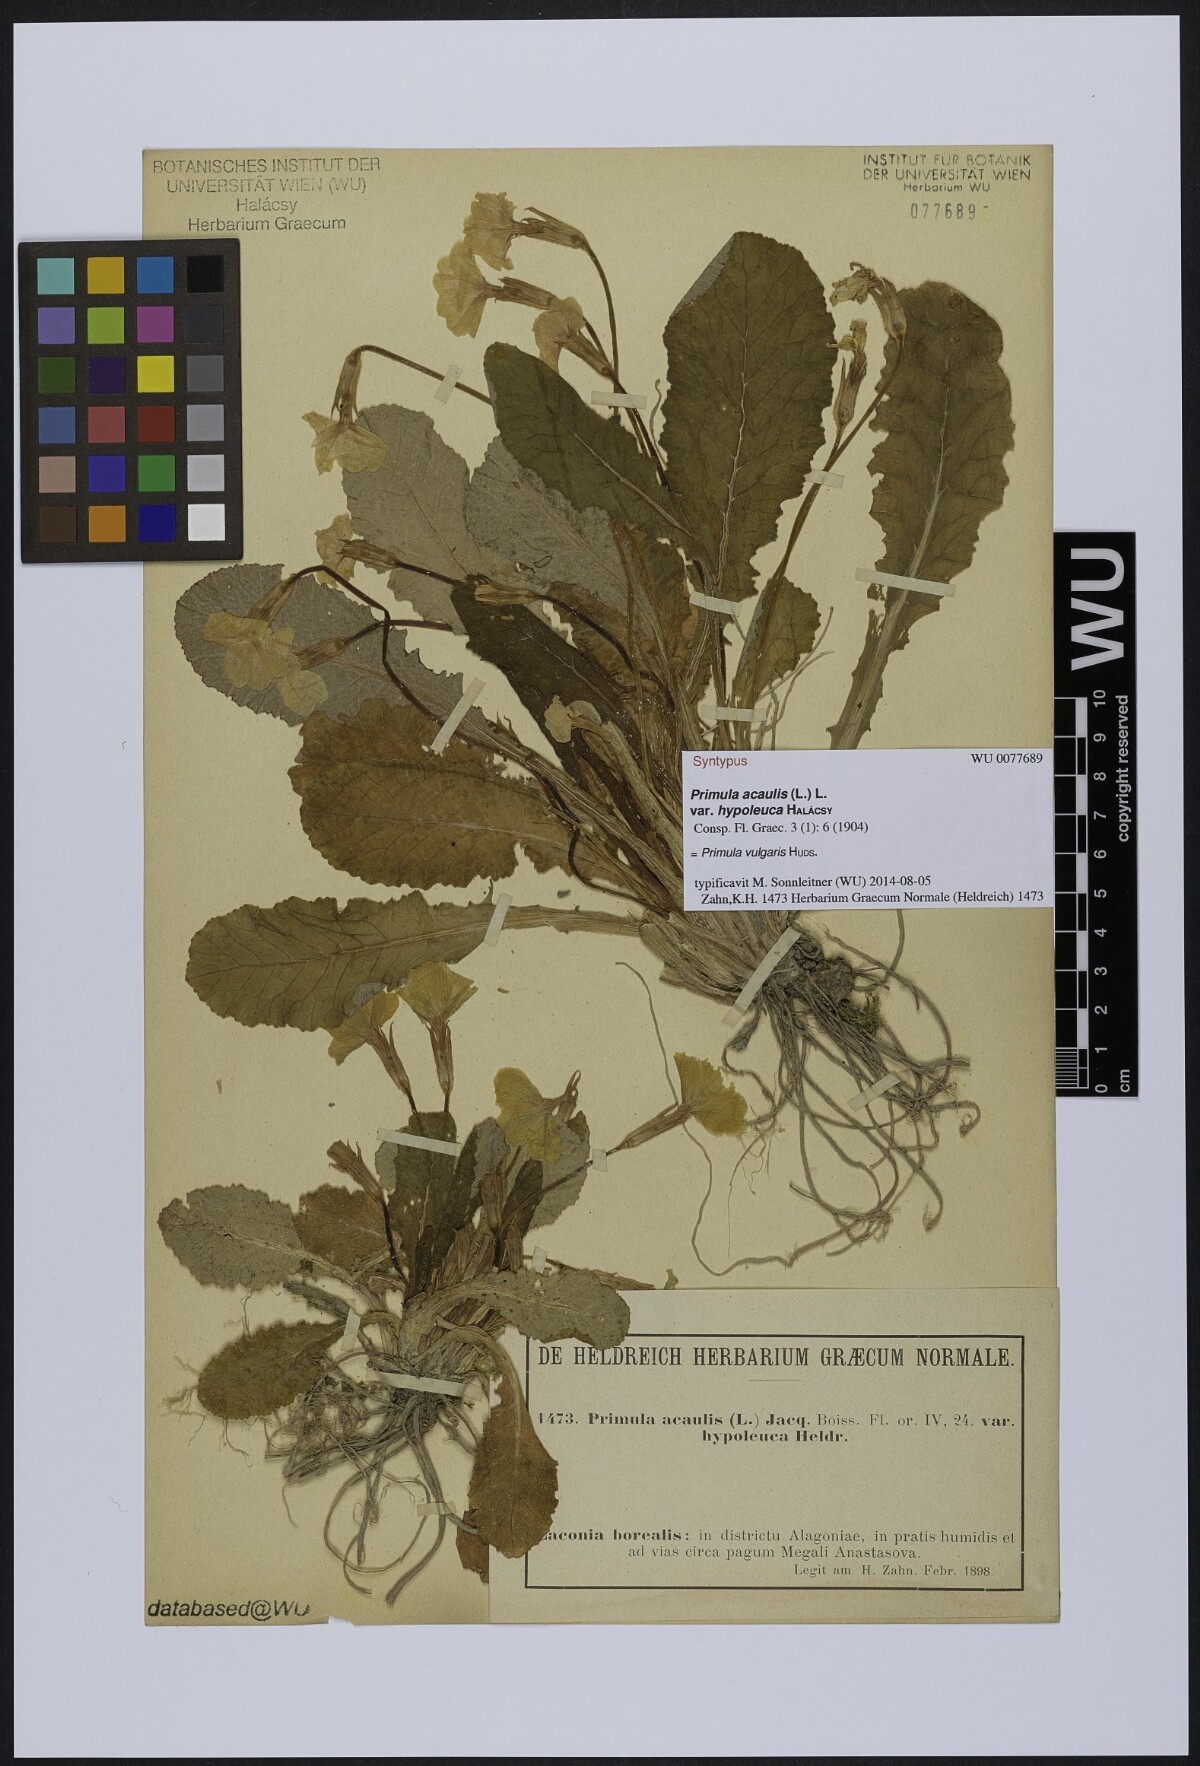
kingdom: Plantae
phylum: Tracheophyta
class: Magnoliopsida
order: Ericales
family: Primulaceae
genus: Primula
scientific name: Primula vulgaris
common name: Primrose
